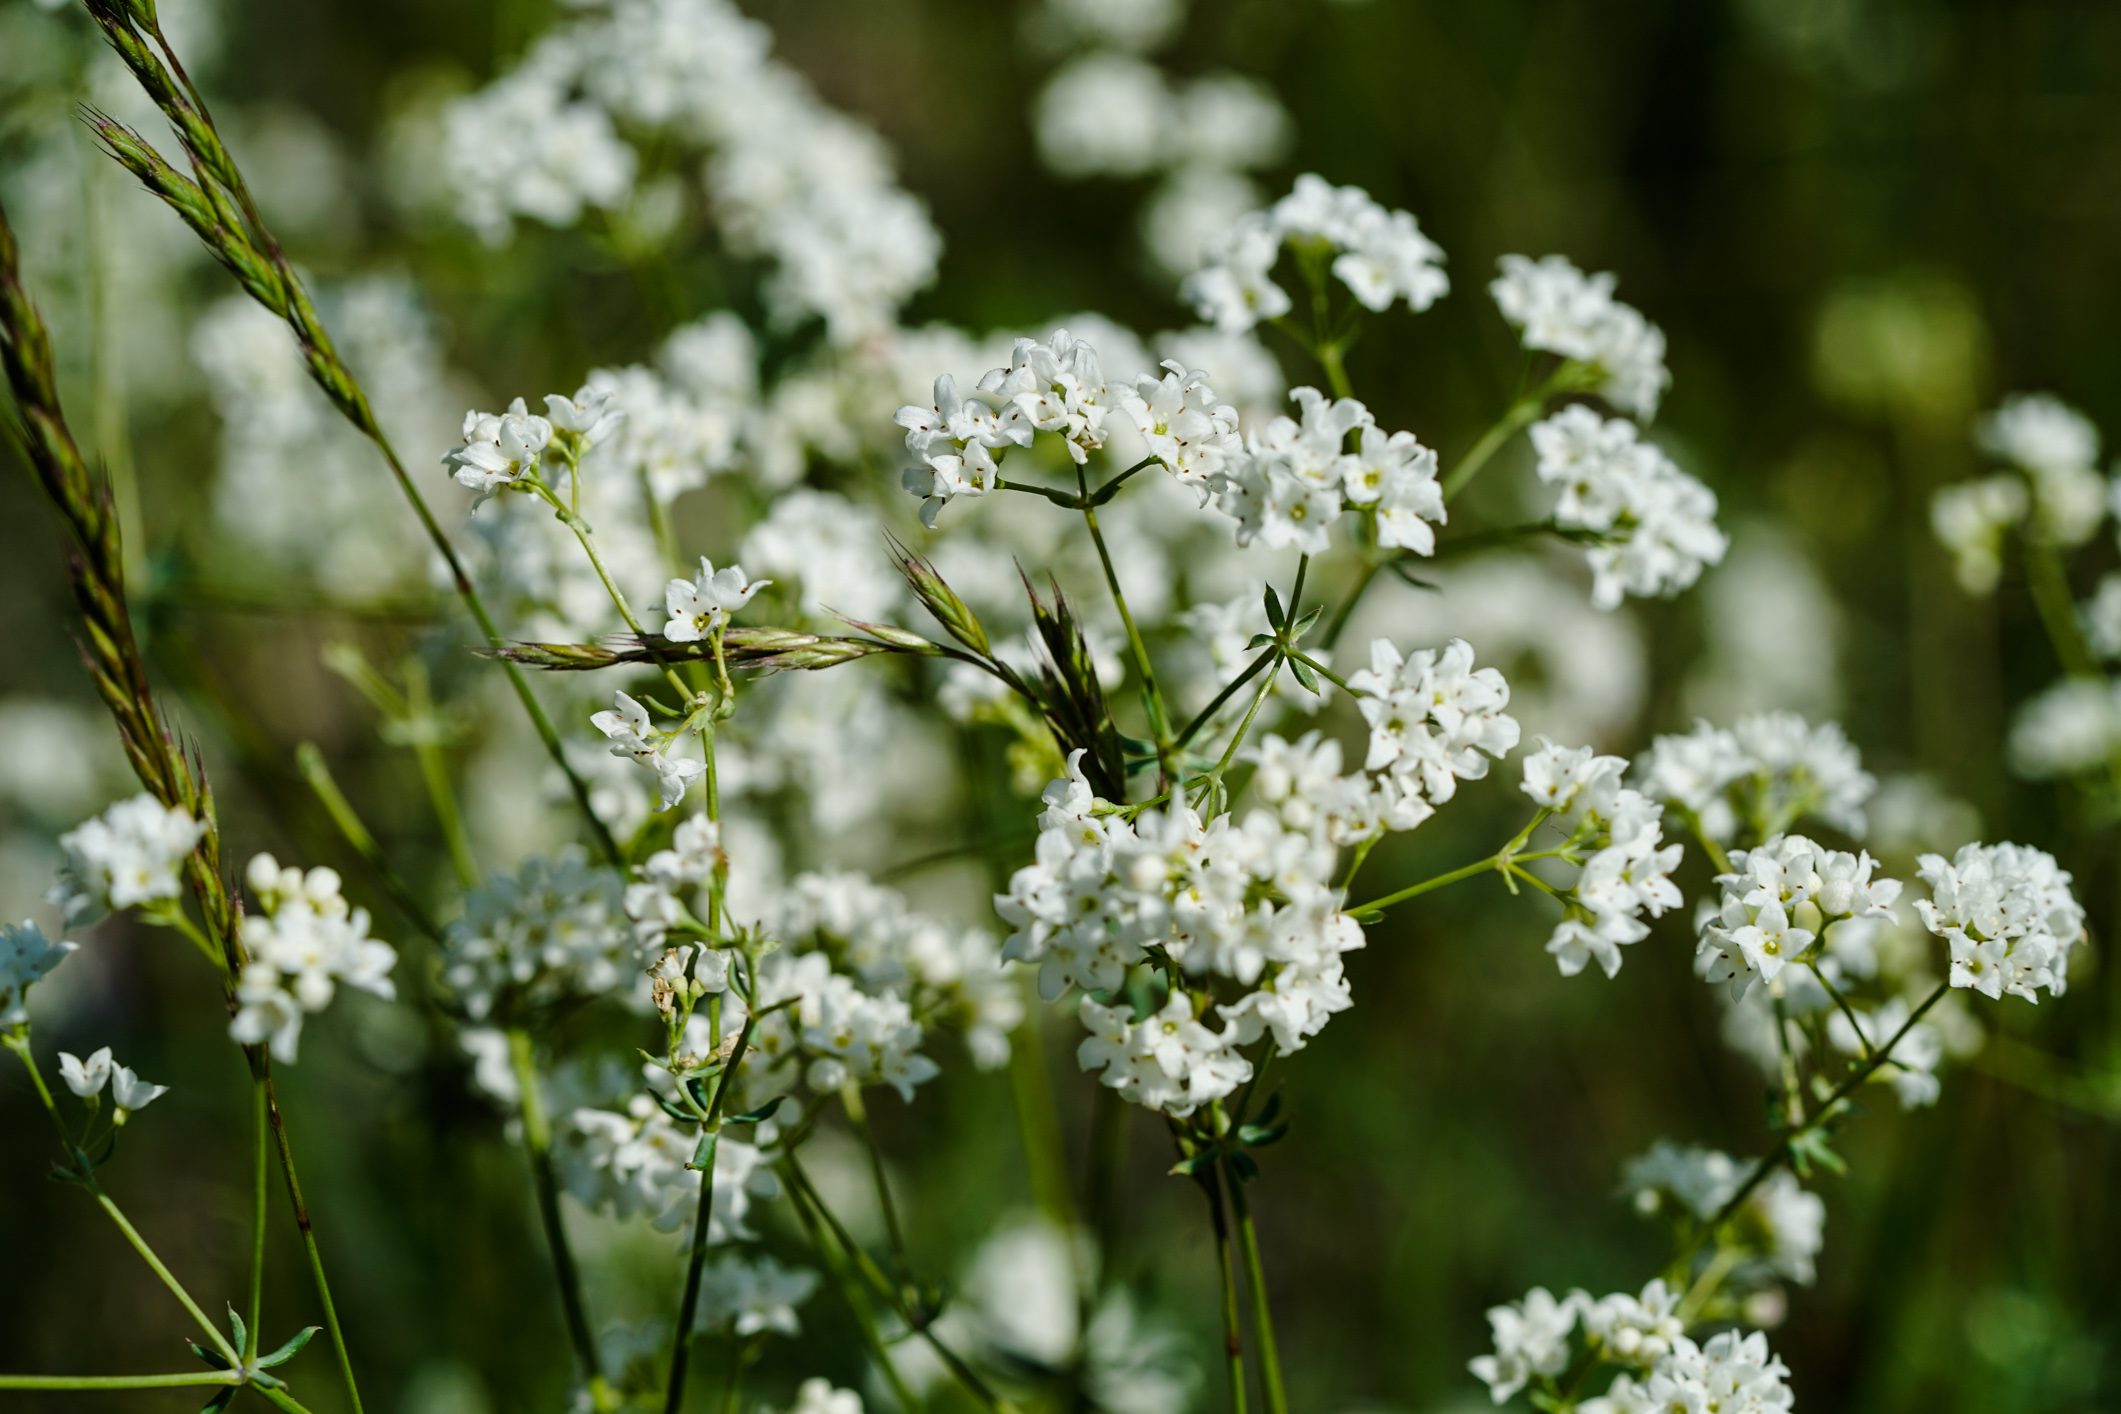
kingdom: Plantae
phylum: Tracheophyta
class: Magnoliopsida
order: Gentianales
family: Rubiaceae
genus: Asperula
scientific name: Asperula tinctoria
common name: Dyer's woodruff
